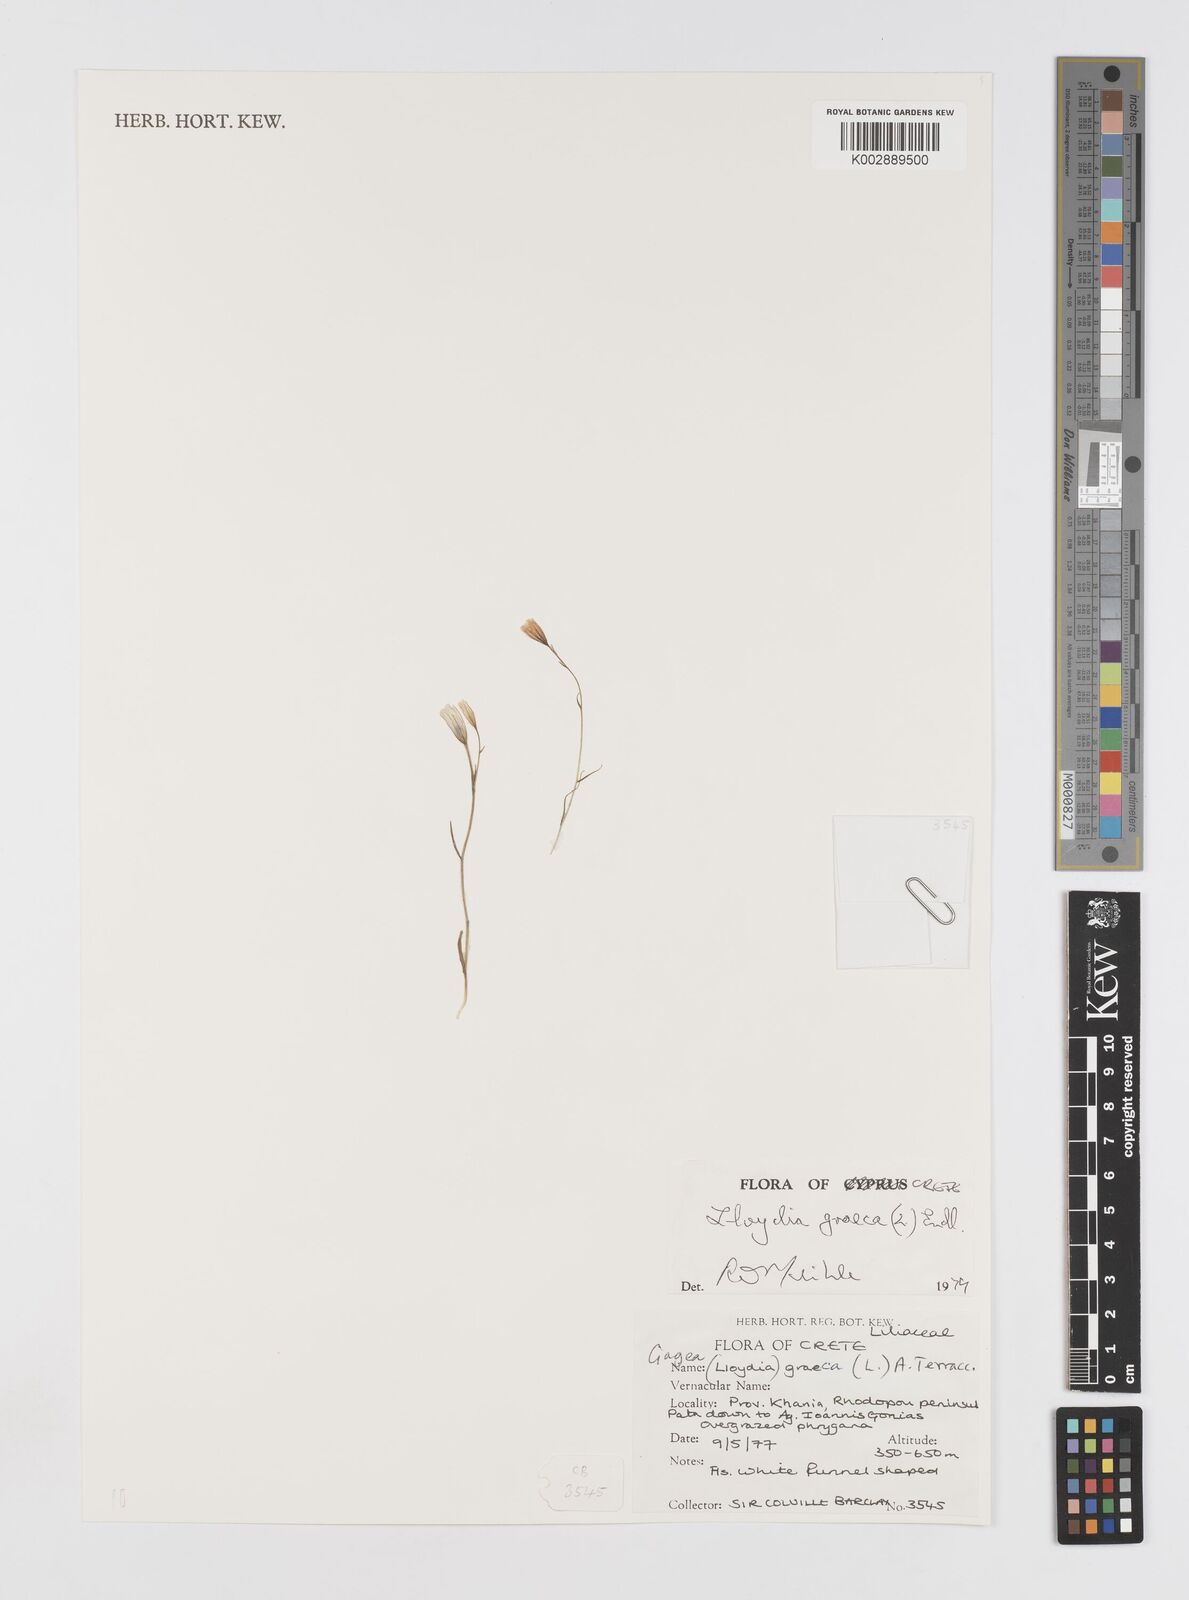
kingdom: Plantae
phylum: Tracheophyta
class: Liliopsida
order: Liliales
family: Liliaceae
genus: Gagea
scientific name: Gagea graeca
